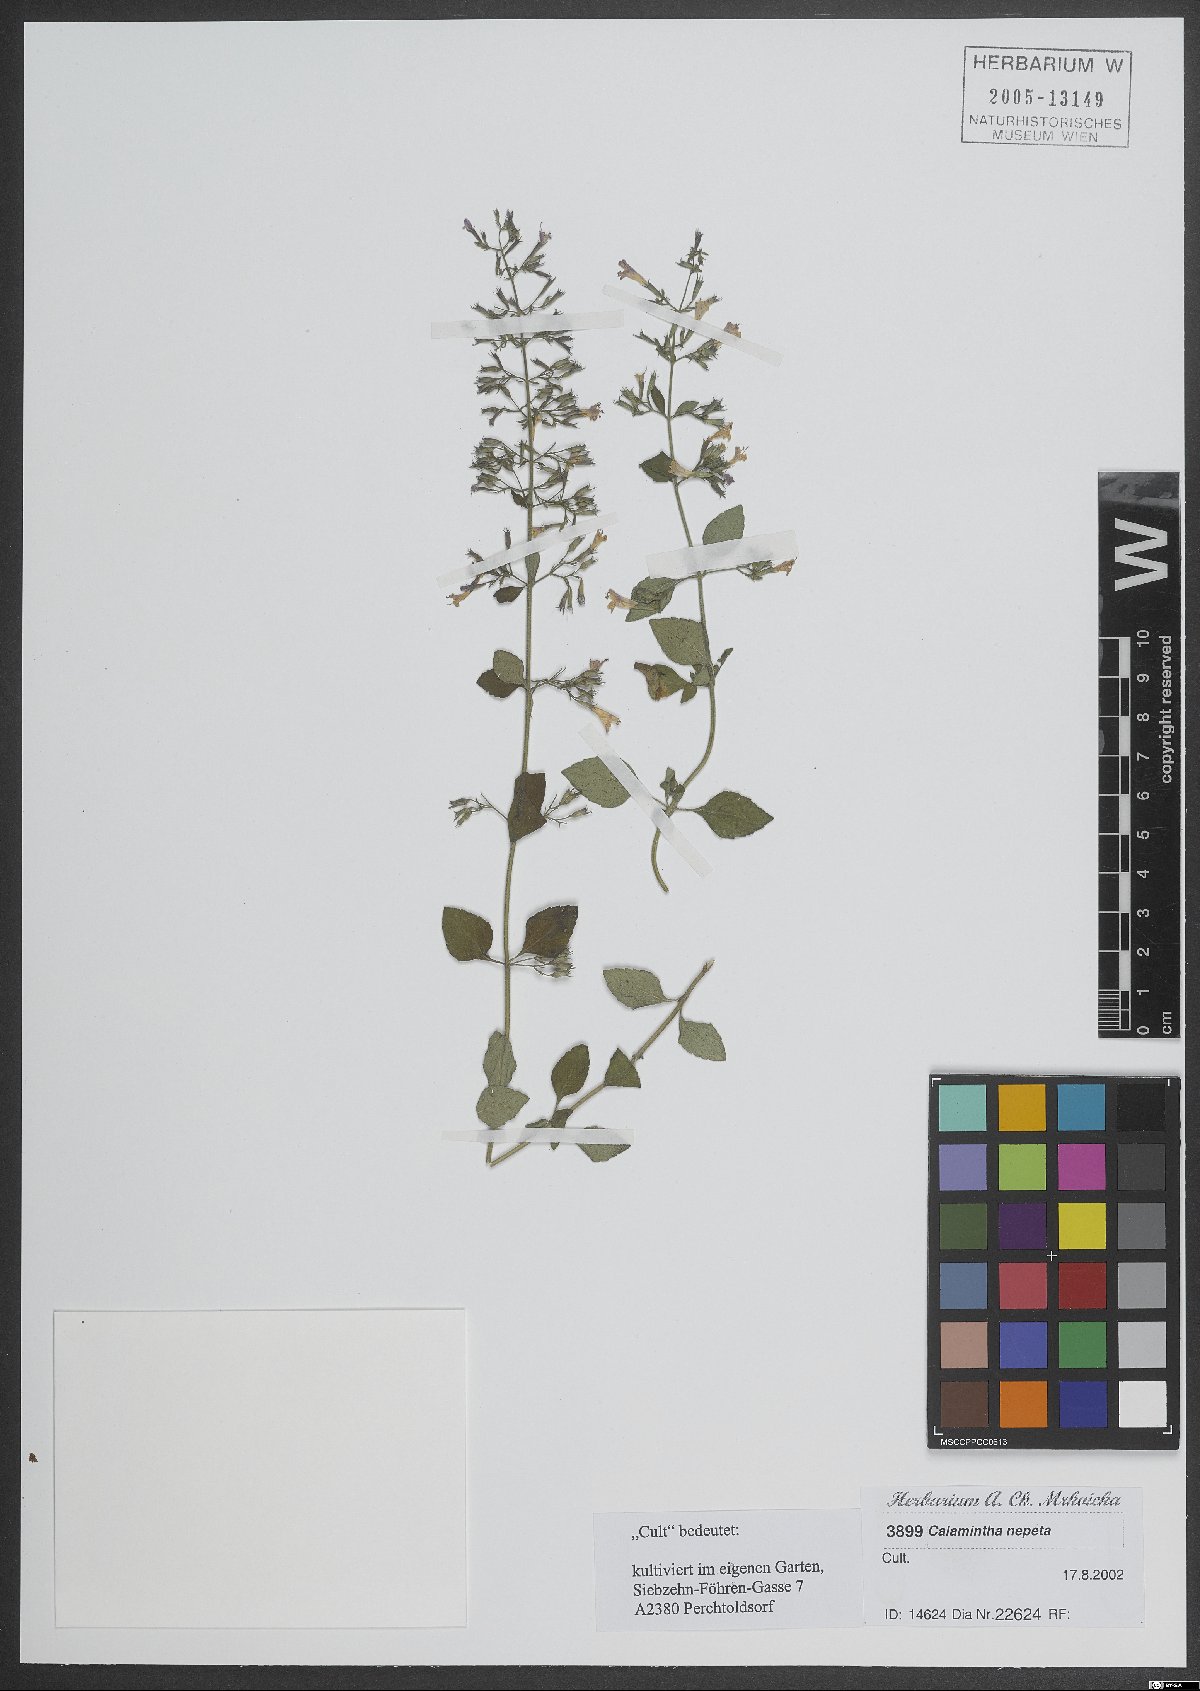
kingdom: Plantae
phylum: Tracheophyta
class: Magnoliopsida
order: Lamiales
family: Lamiaceae
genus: Clinopodium
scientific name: Clinopodium nepeta
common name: Lesser calamint
